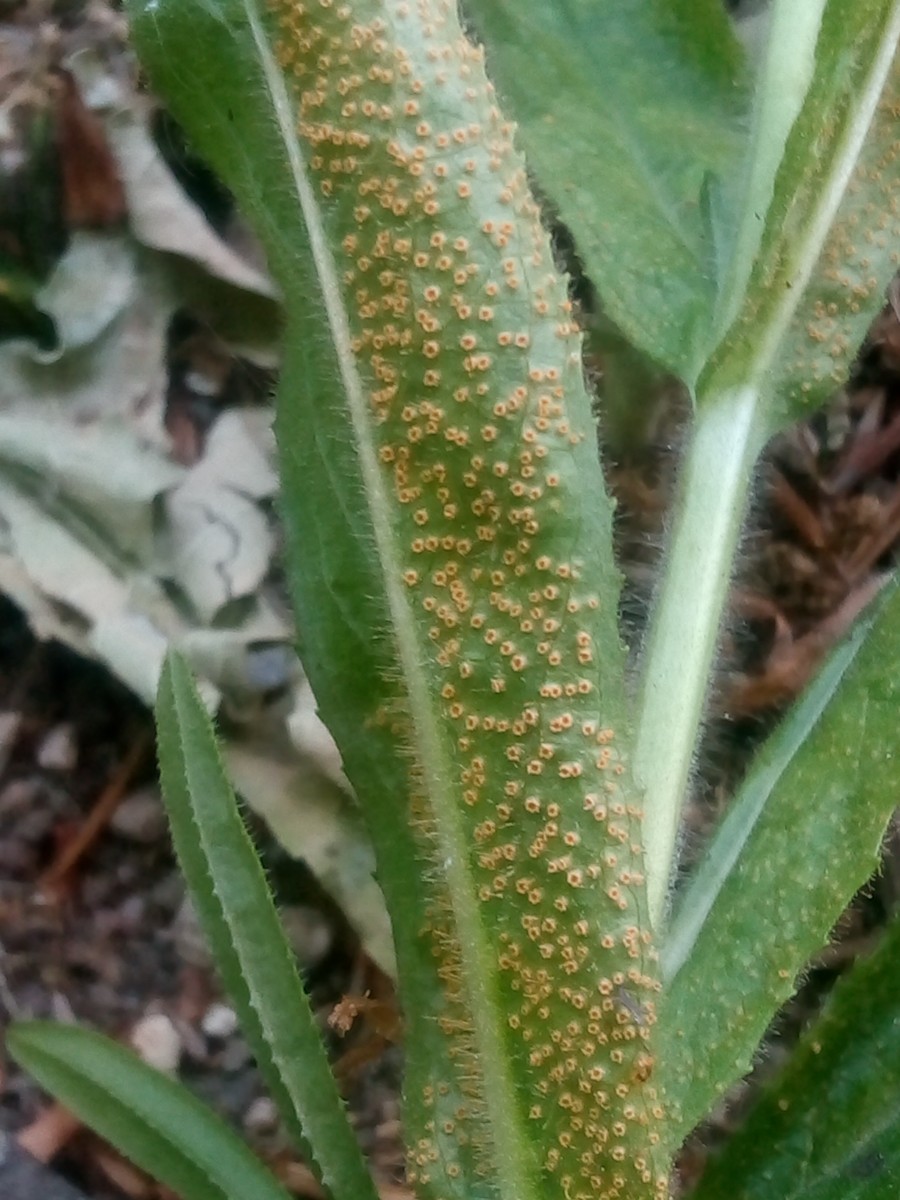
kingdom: Fungi
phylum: Basidiomycota
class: Pucciniomycetes
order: Pucciniales
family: Pucciniaceae
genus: Puccinia
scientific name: Puccinia pulverulenta
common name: dueurt-tvecellerust
